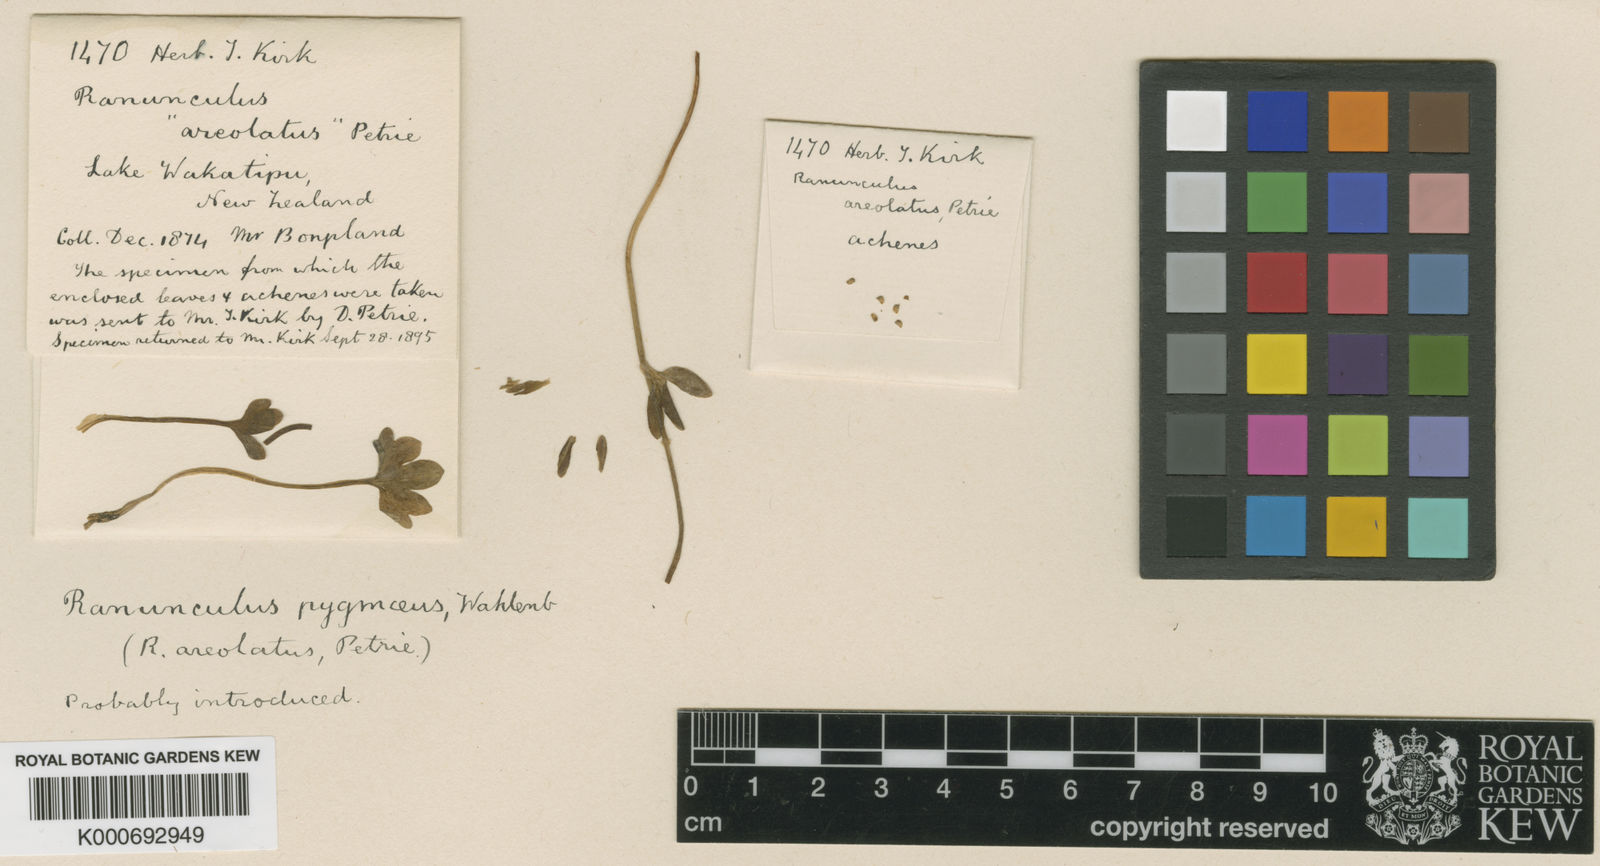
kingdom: Plantae
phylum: Tracheophyta
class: Magnoliopsida
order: Ranunculales
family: Ranunculaceae
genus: Ranunculus
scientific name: Ranunculus pygmaeus
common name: Dwarf buttercup
